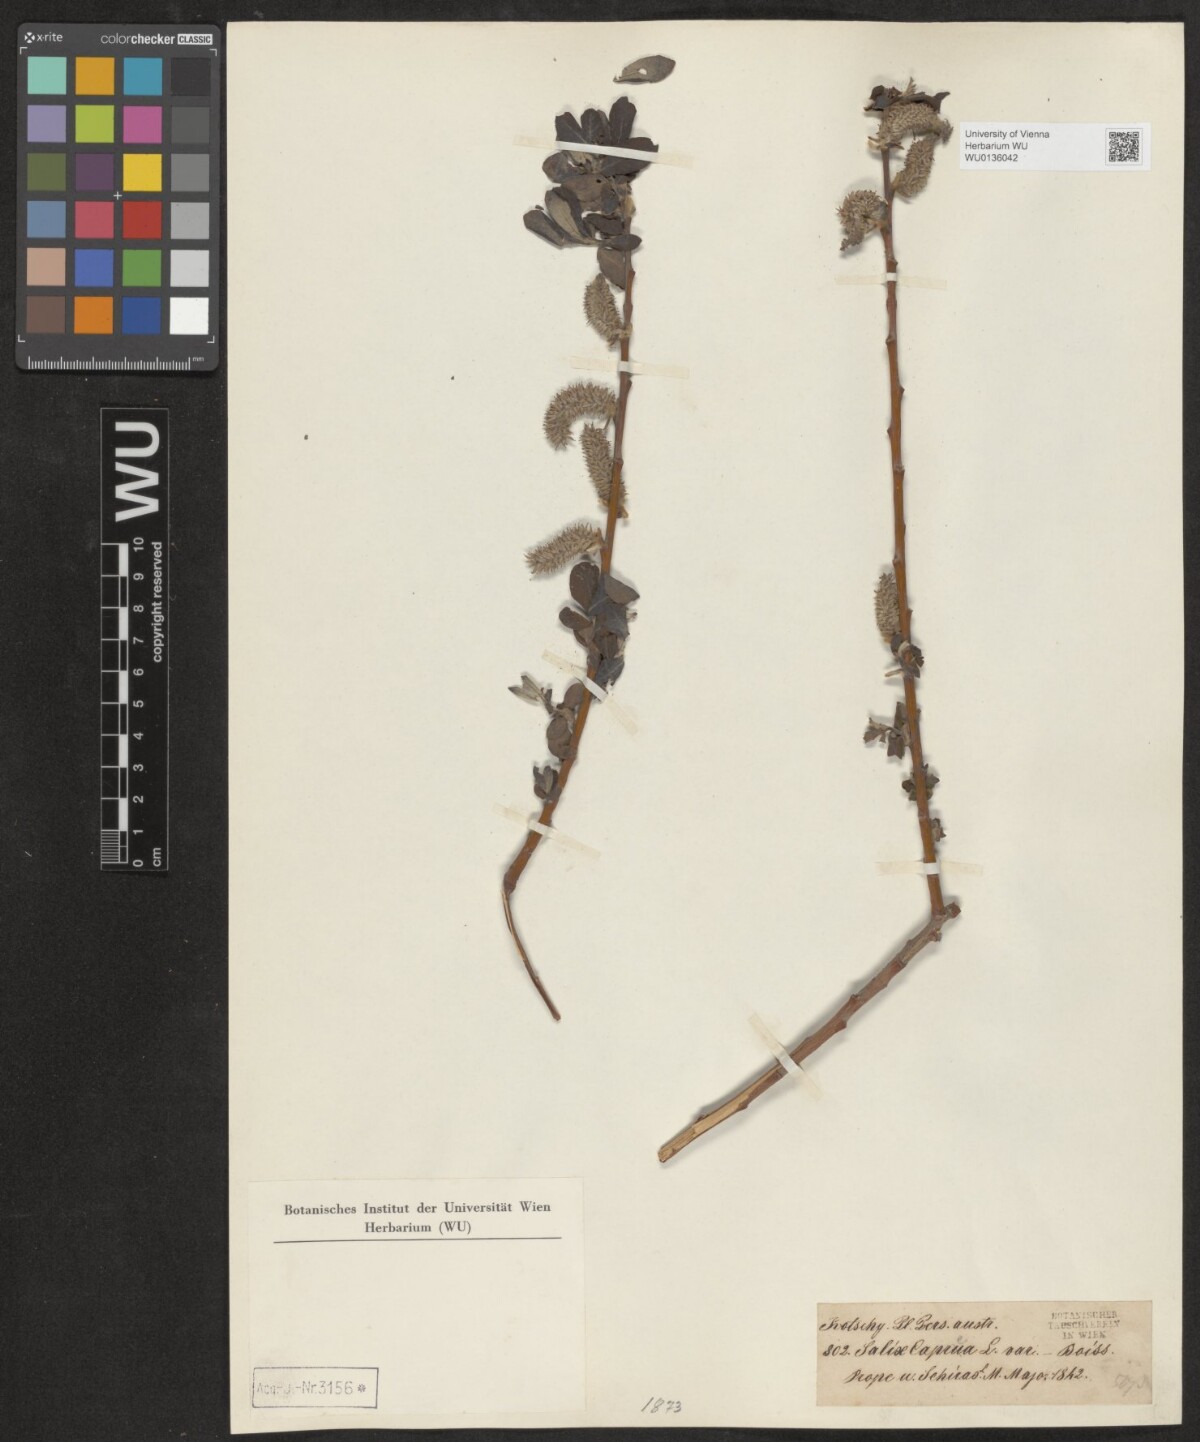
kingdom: Plantae
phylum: Tracheophyta
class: Magnoliopsida
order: Malpighiales
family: Salicaceae
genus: Salix
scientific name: Salix cinerea
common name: Common sallow
